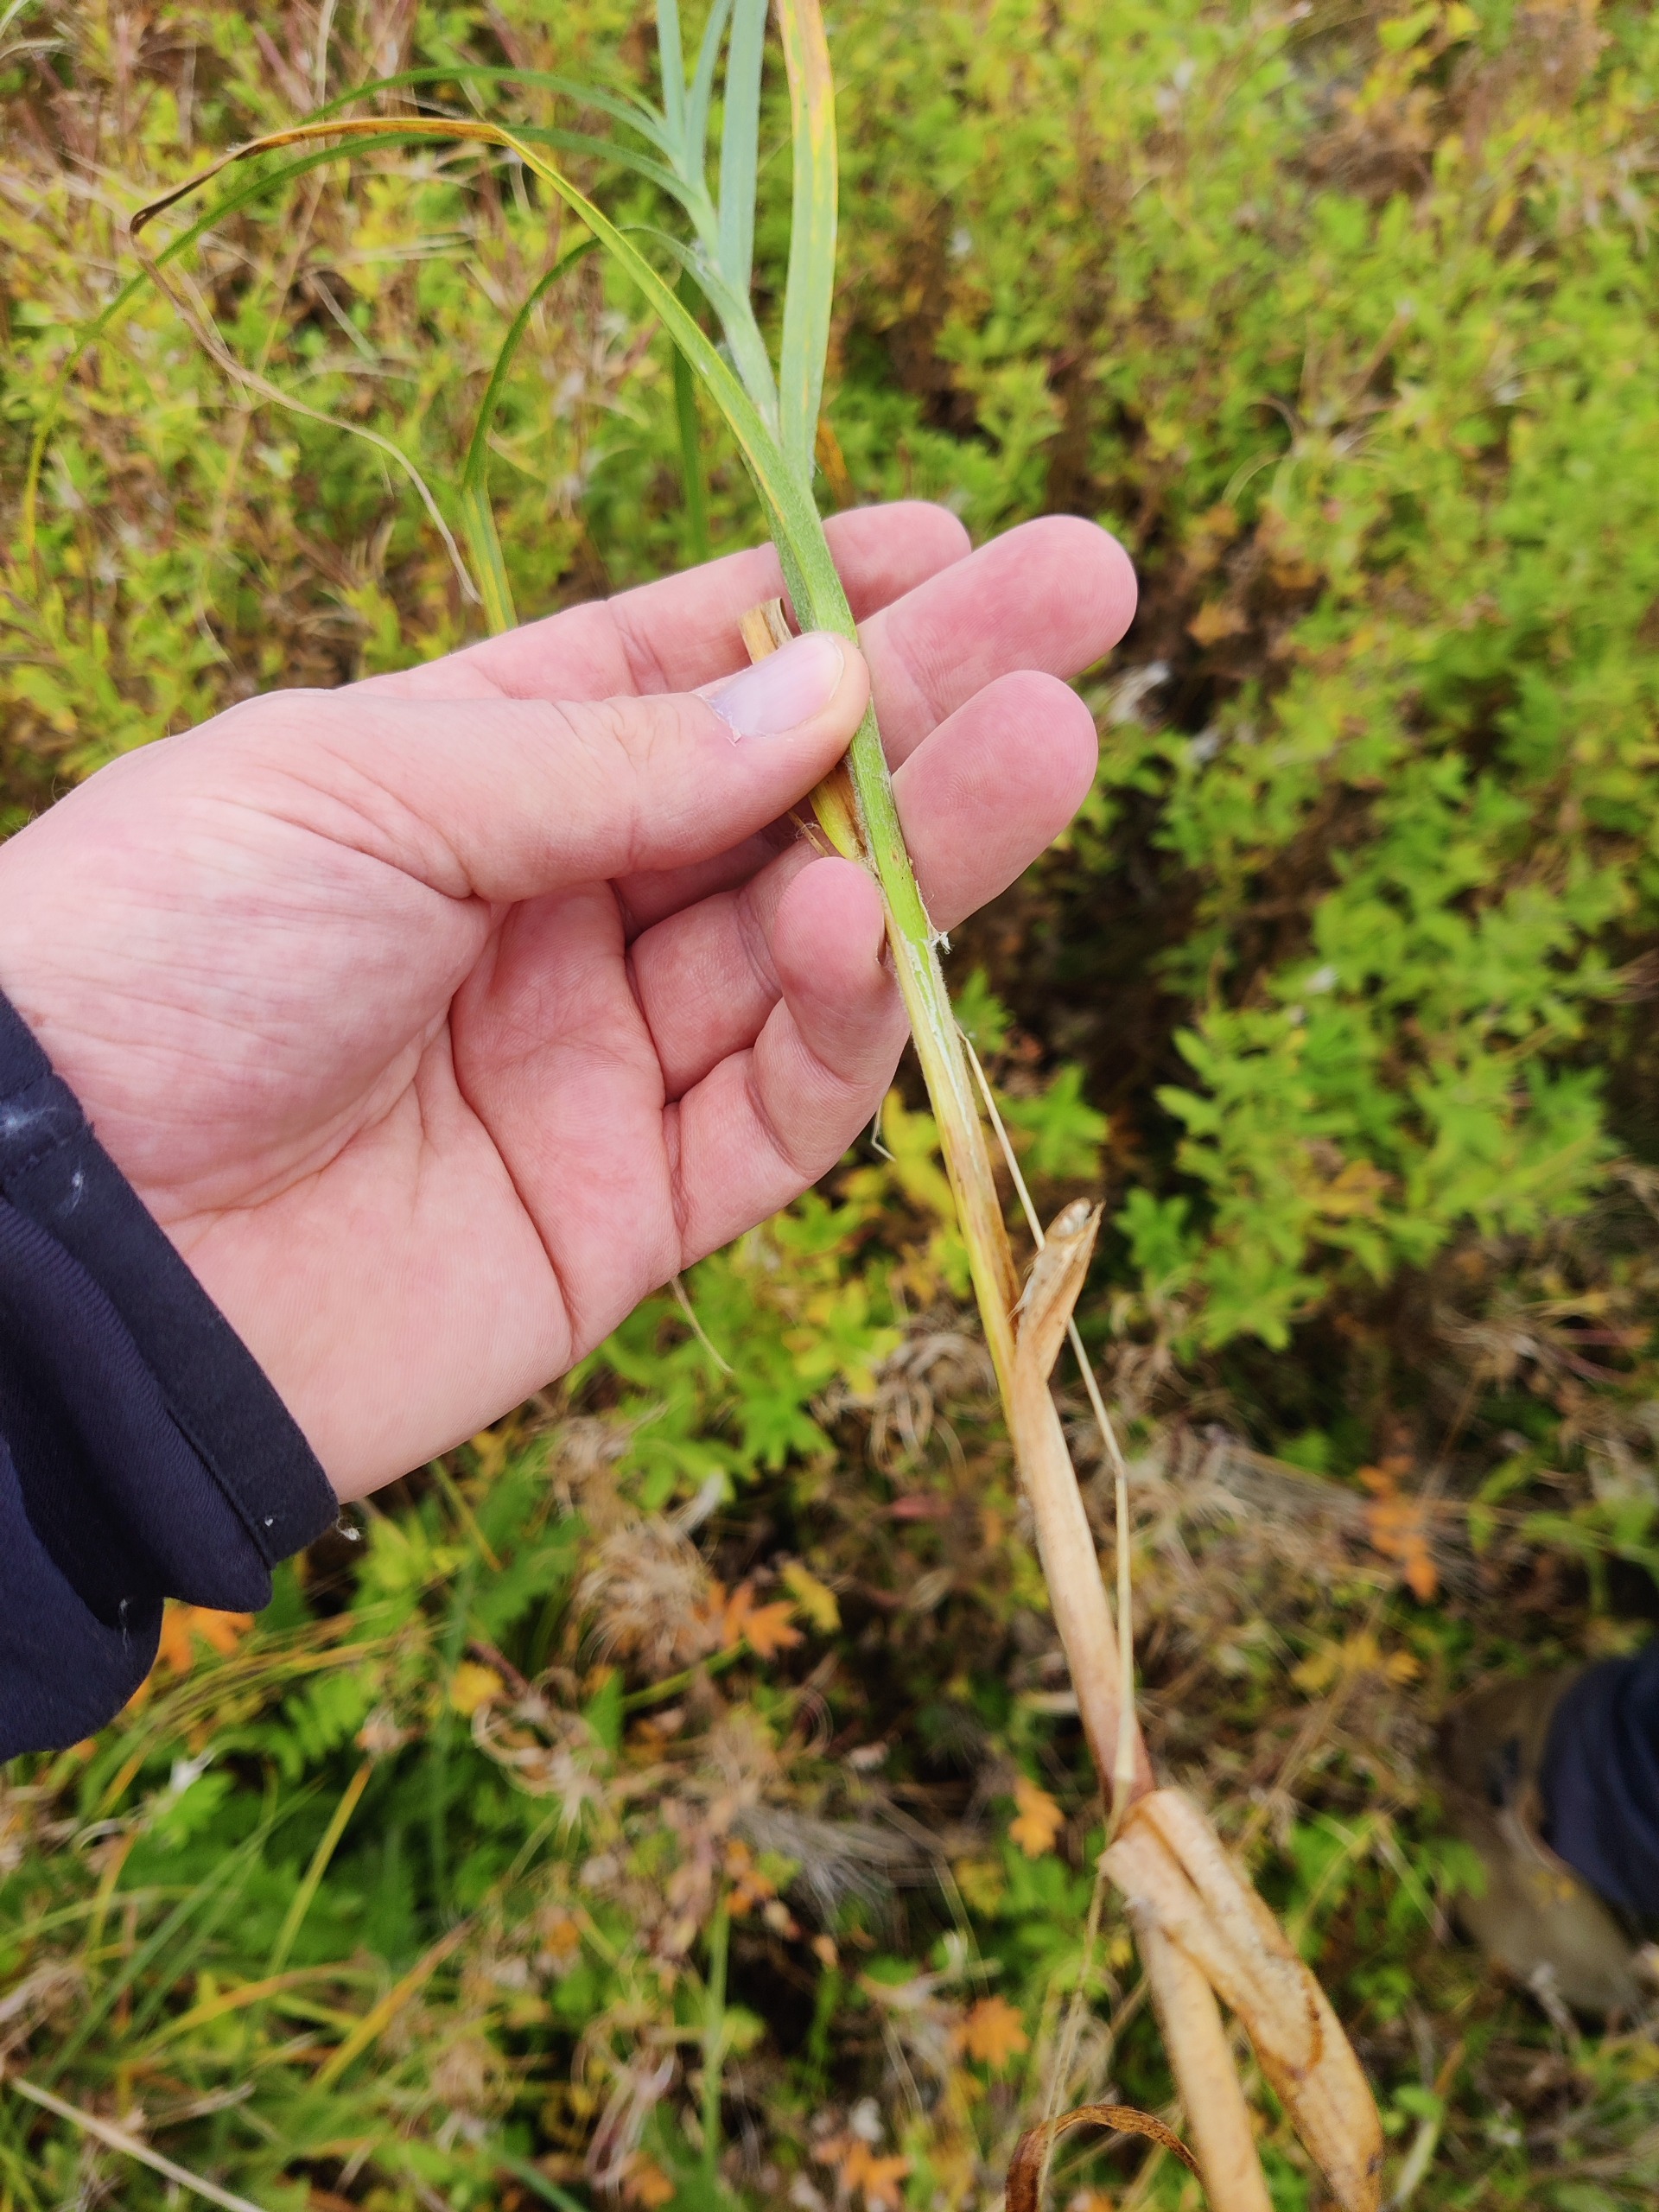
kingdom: Plantae
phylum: Tracheophyta
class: Liliopsida
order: Poales
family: Cyperaceae
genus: Carex
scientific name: Carex hirta
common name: Håret star
